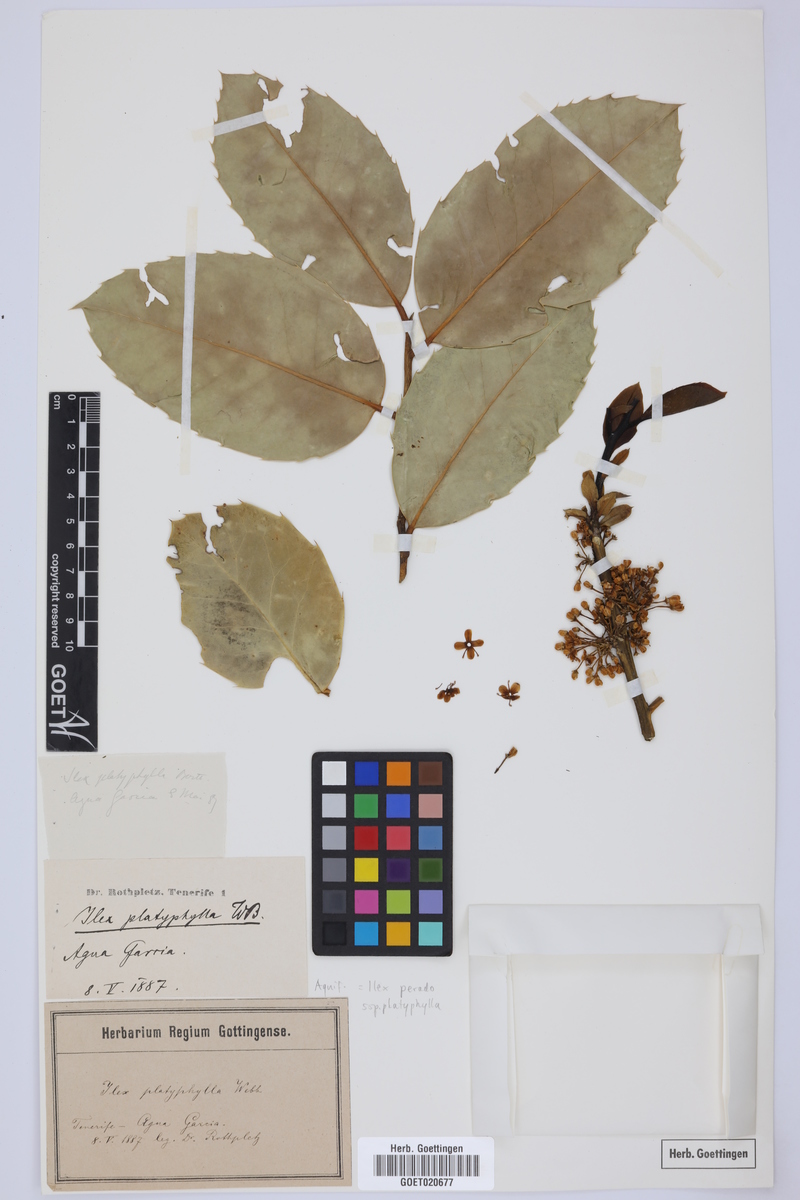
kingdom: Plantae
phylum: Tracheophyta
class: Magnoliopsida
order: Aquifoliales
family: Aquifoliaceae
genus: Ilex
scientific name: Ilex perado
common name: Madeira holly
